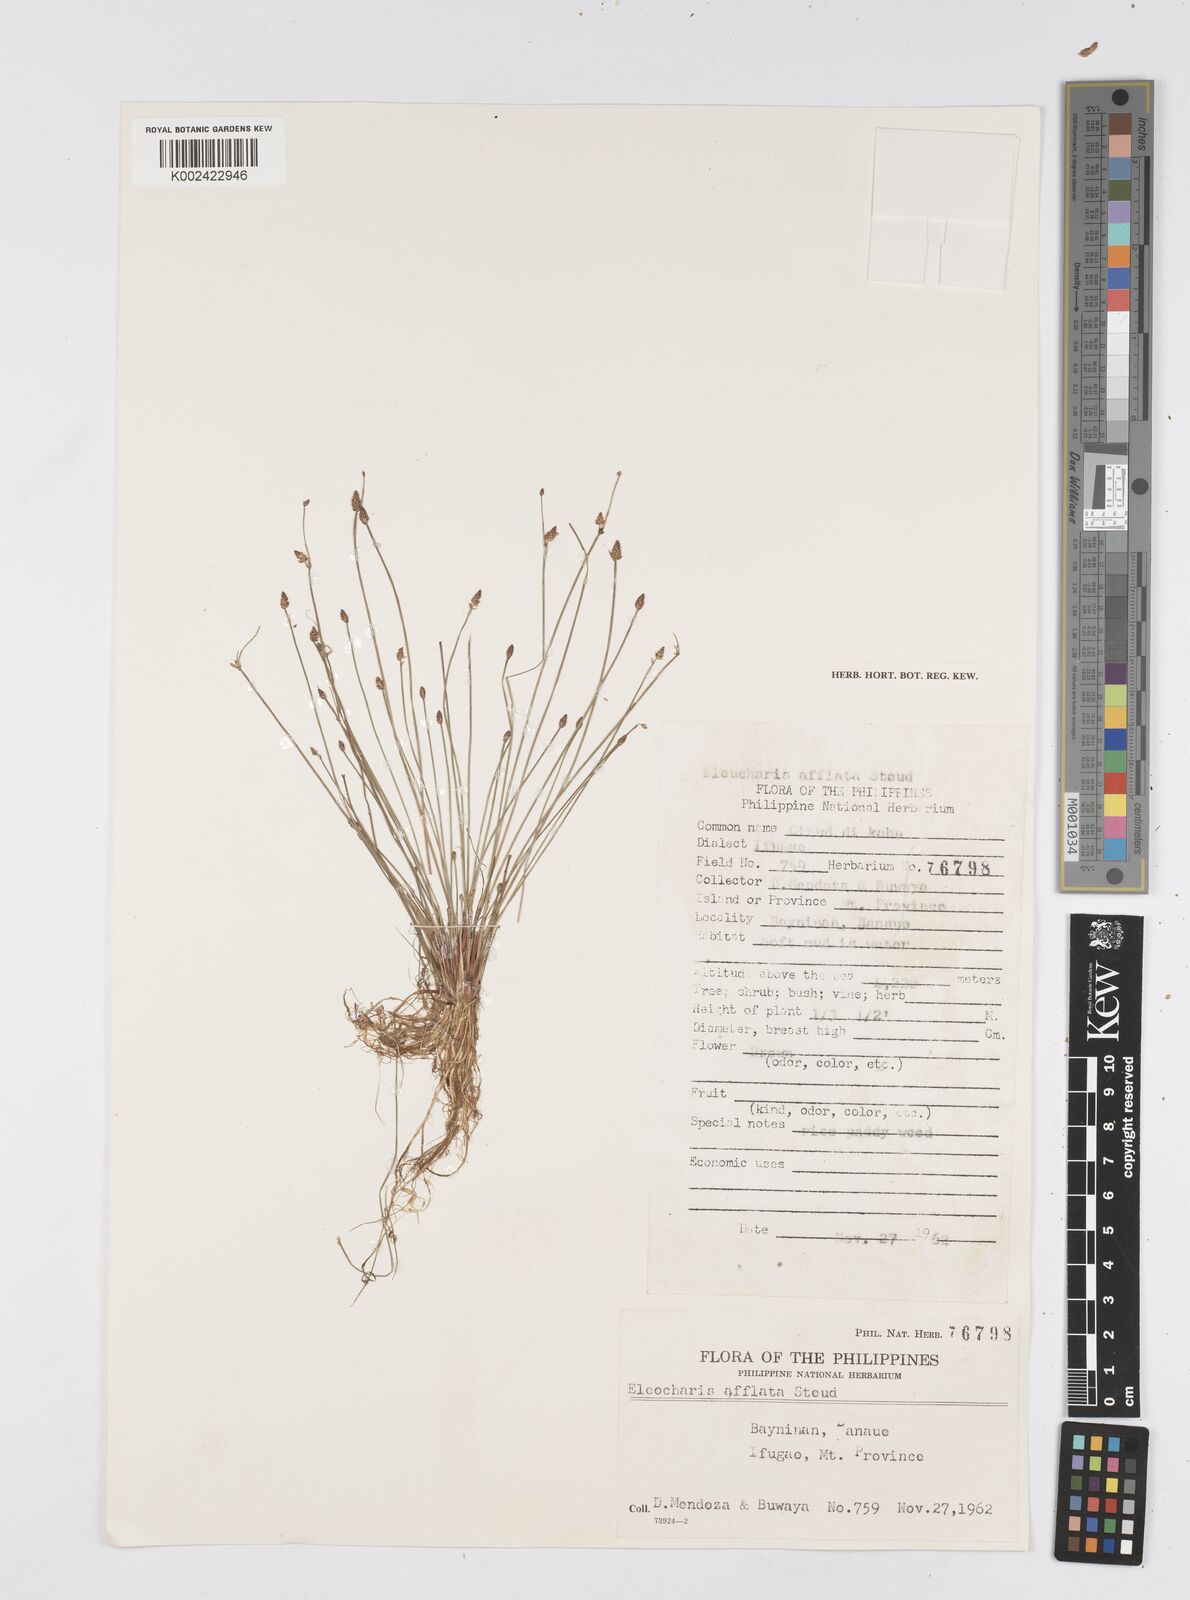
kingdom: Plantae
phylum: Tracheophyta
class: Liliopsida
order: Poales
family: Cyperaceae
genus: Eleocharis
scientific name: Eleocharis congesta
